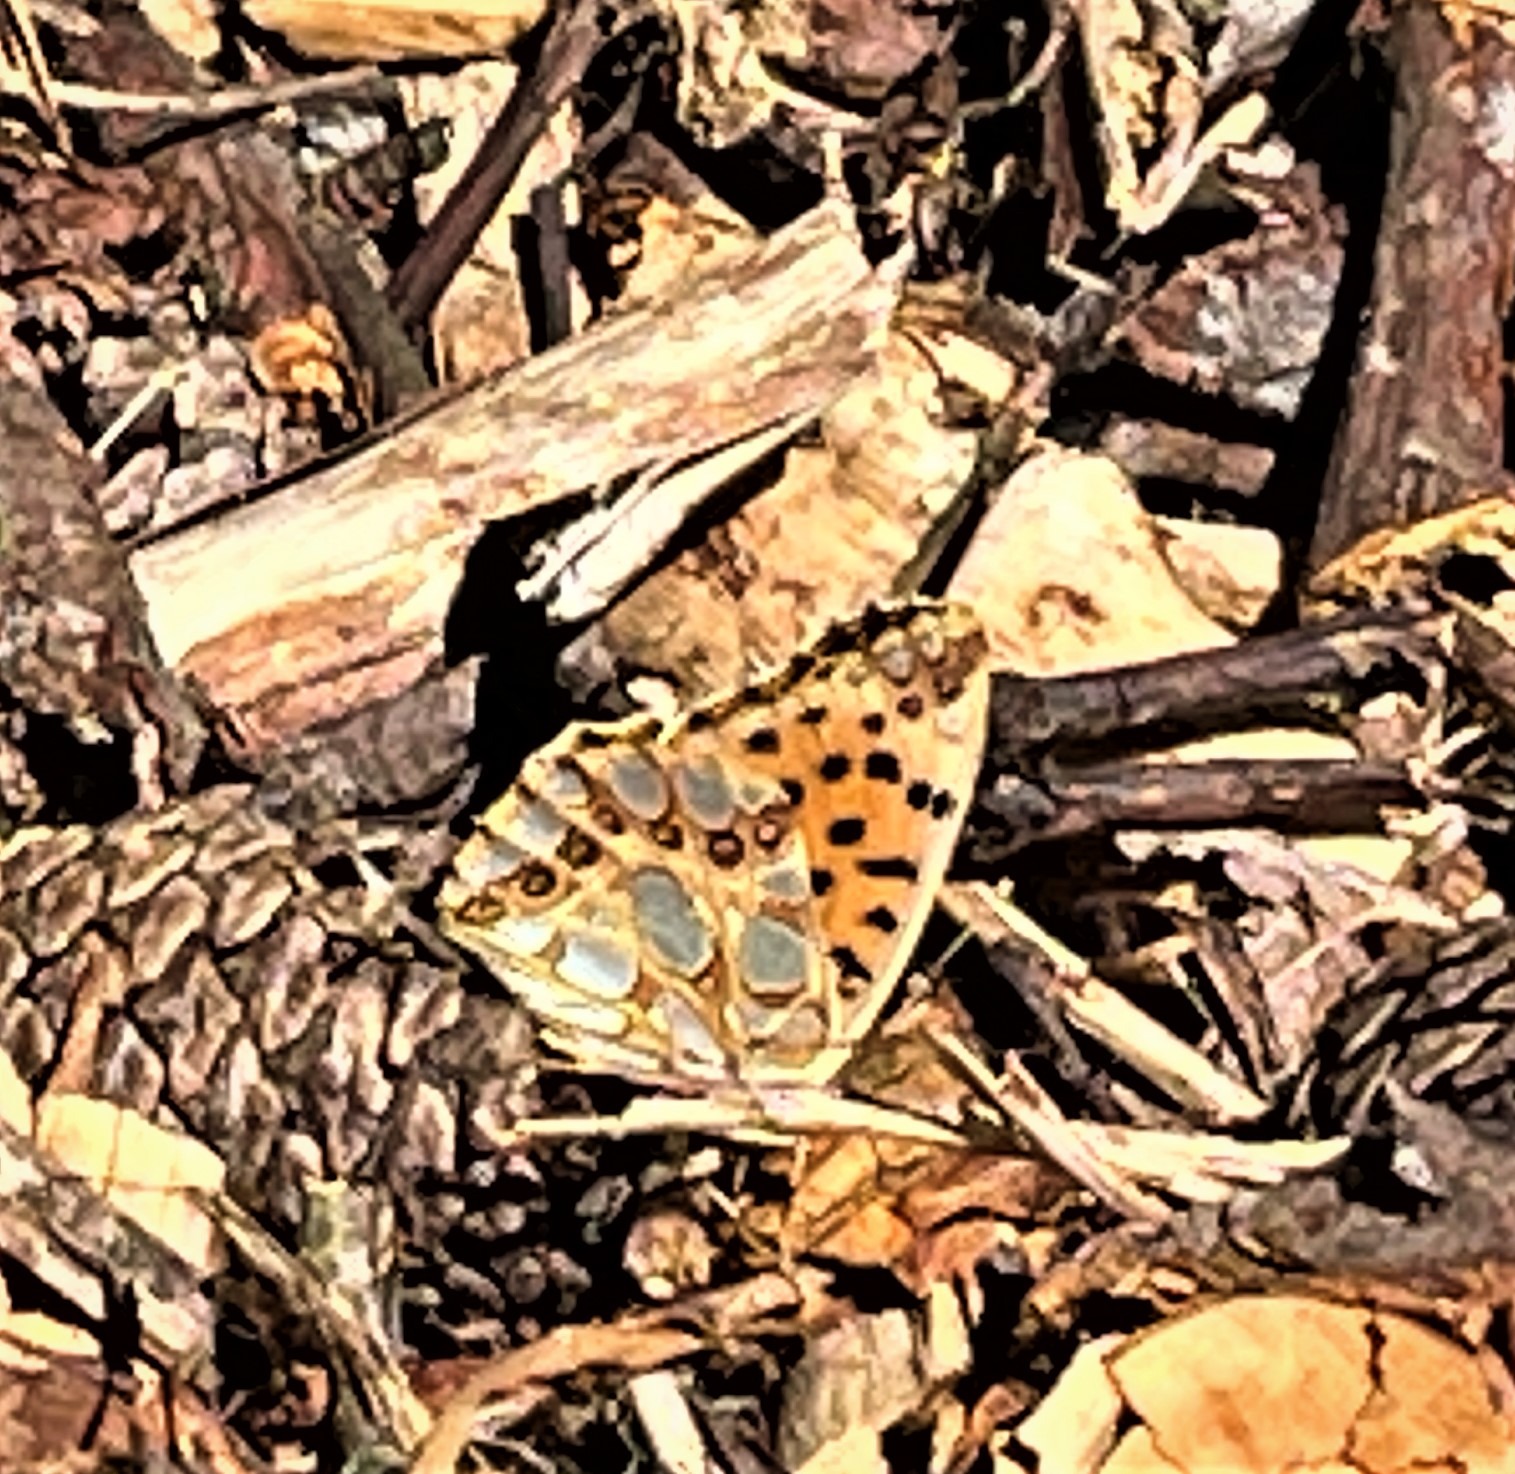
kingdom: Animalia
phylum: Arthropoda
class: Insecta
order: Lepidoptera
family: Nymphalidae
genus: Issoria
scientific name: Issoria lathonia
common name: Storplettet perlemorsommerfugl
